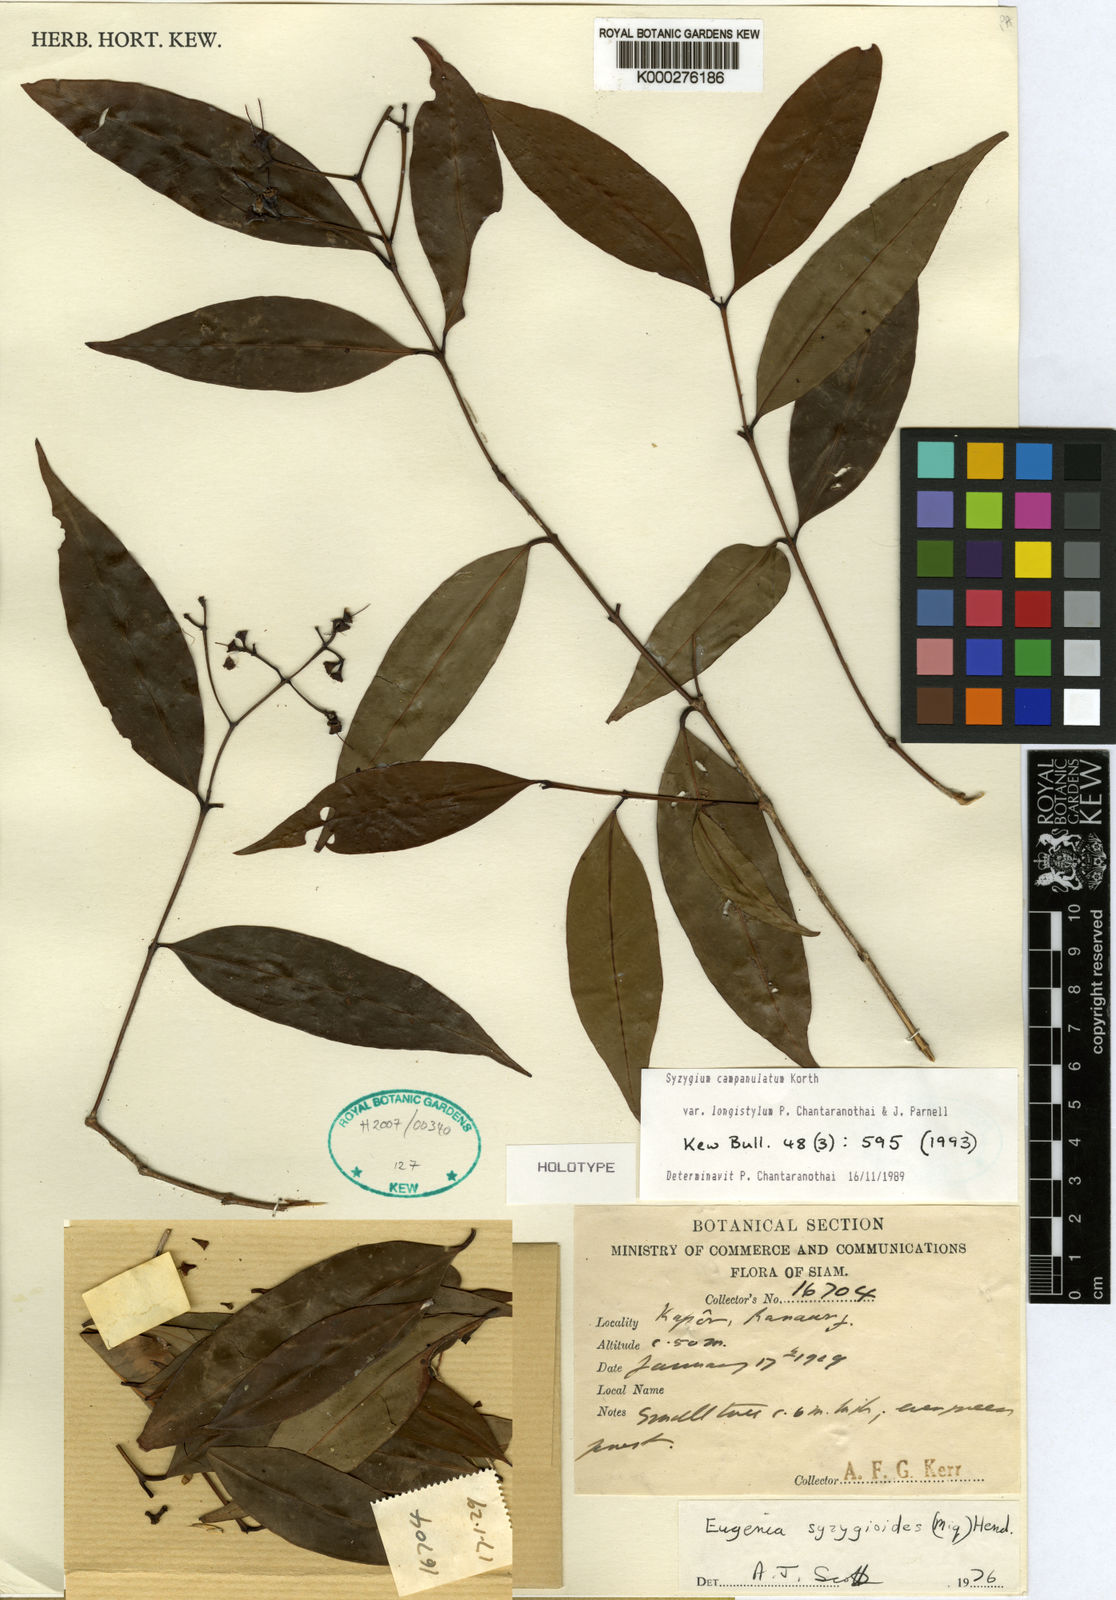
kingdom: Plantae
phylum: Tracheophyta
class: Magnoliopsida
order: Myrtales
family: Myrtaceae
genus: Syzygium
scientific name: Syzygium myrtifolium
